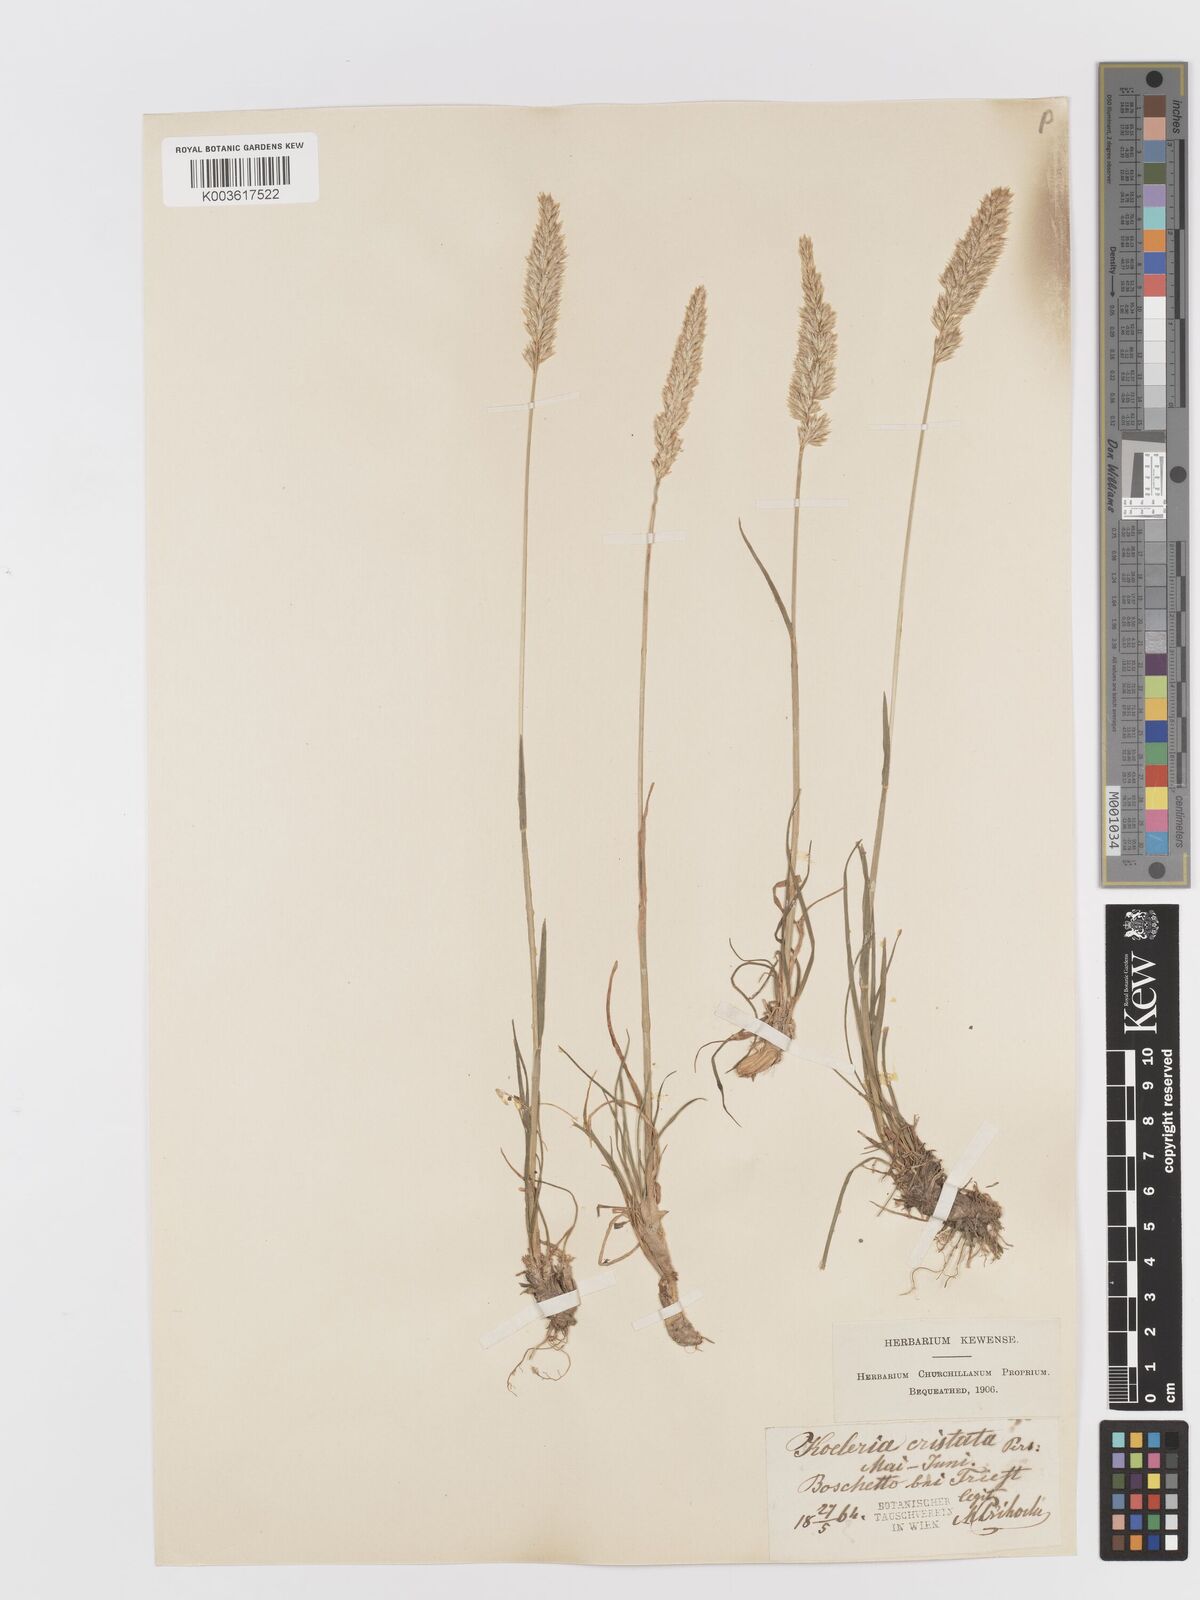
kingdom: Plantae
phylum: Tracheophyta
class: Liliopsida
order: Poales
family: Poaceae
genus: Koeleria
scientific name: Koeleria
